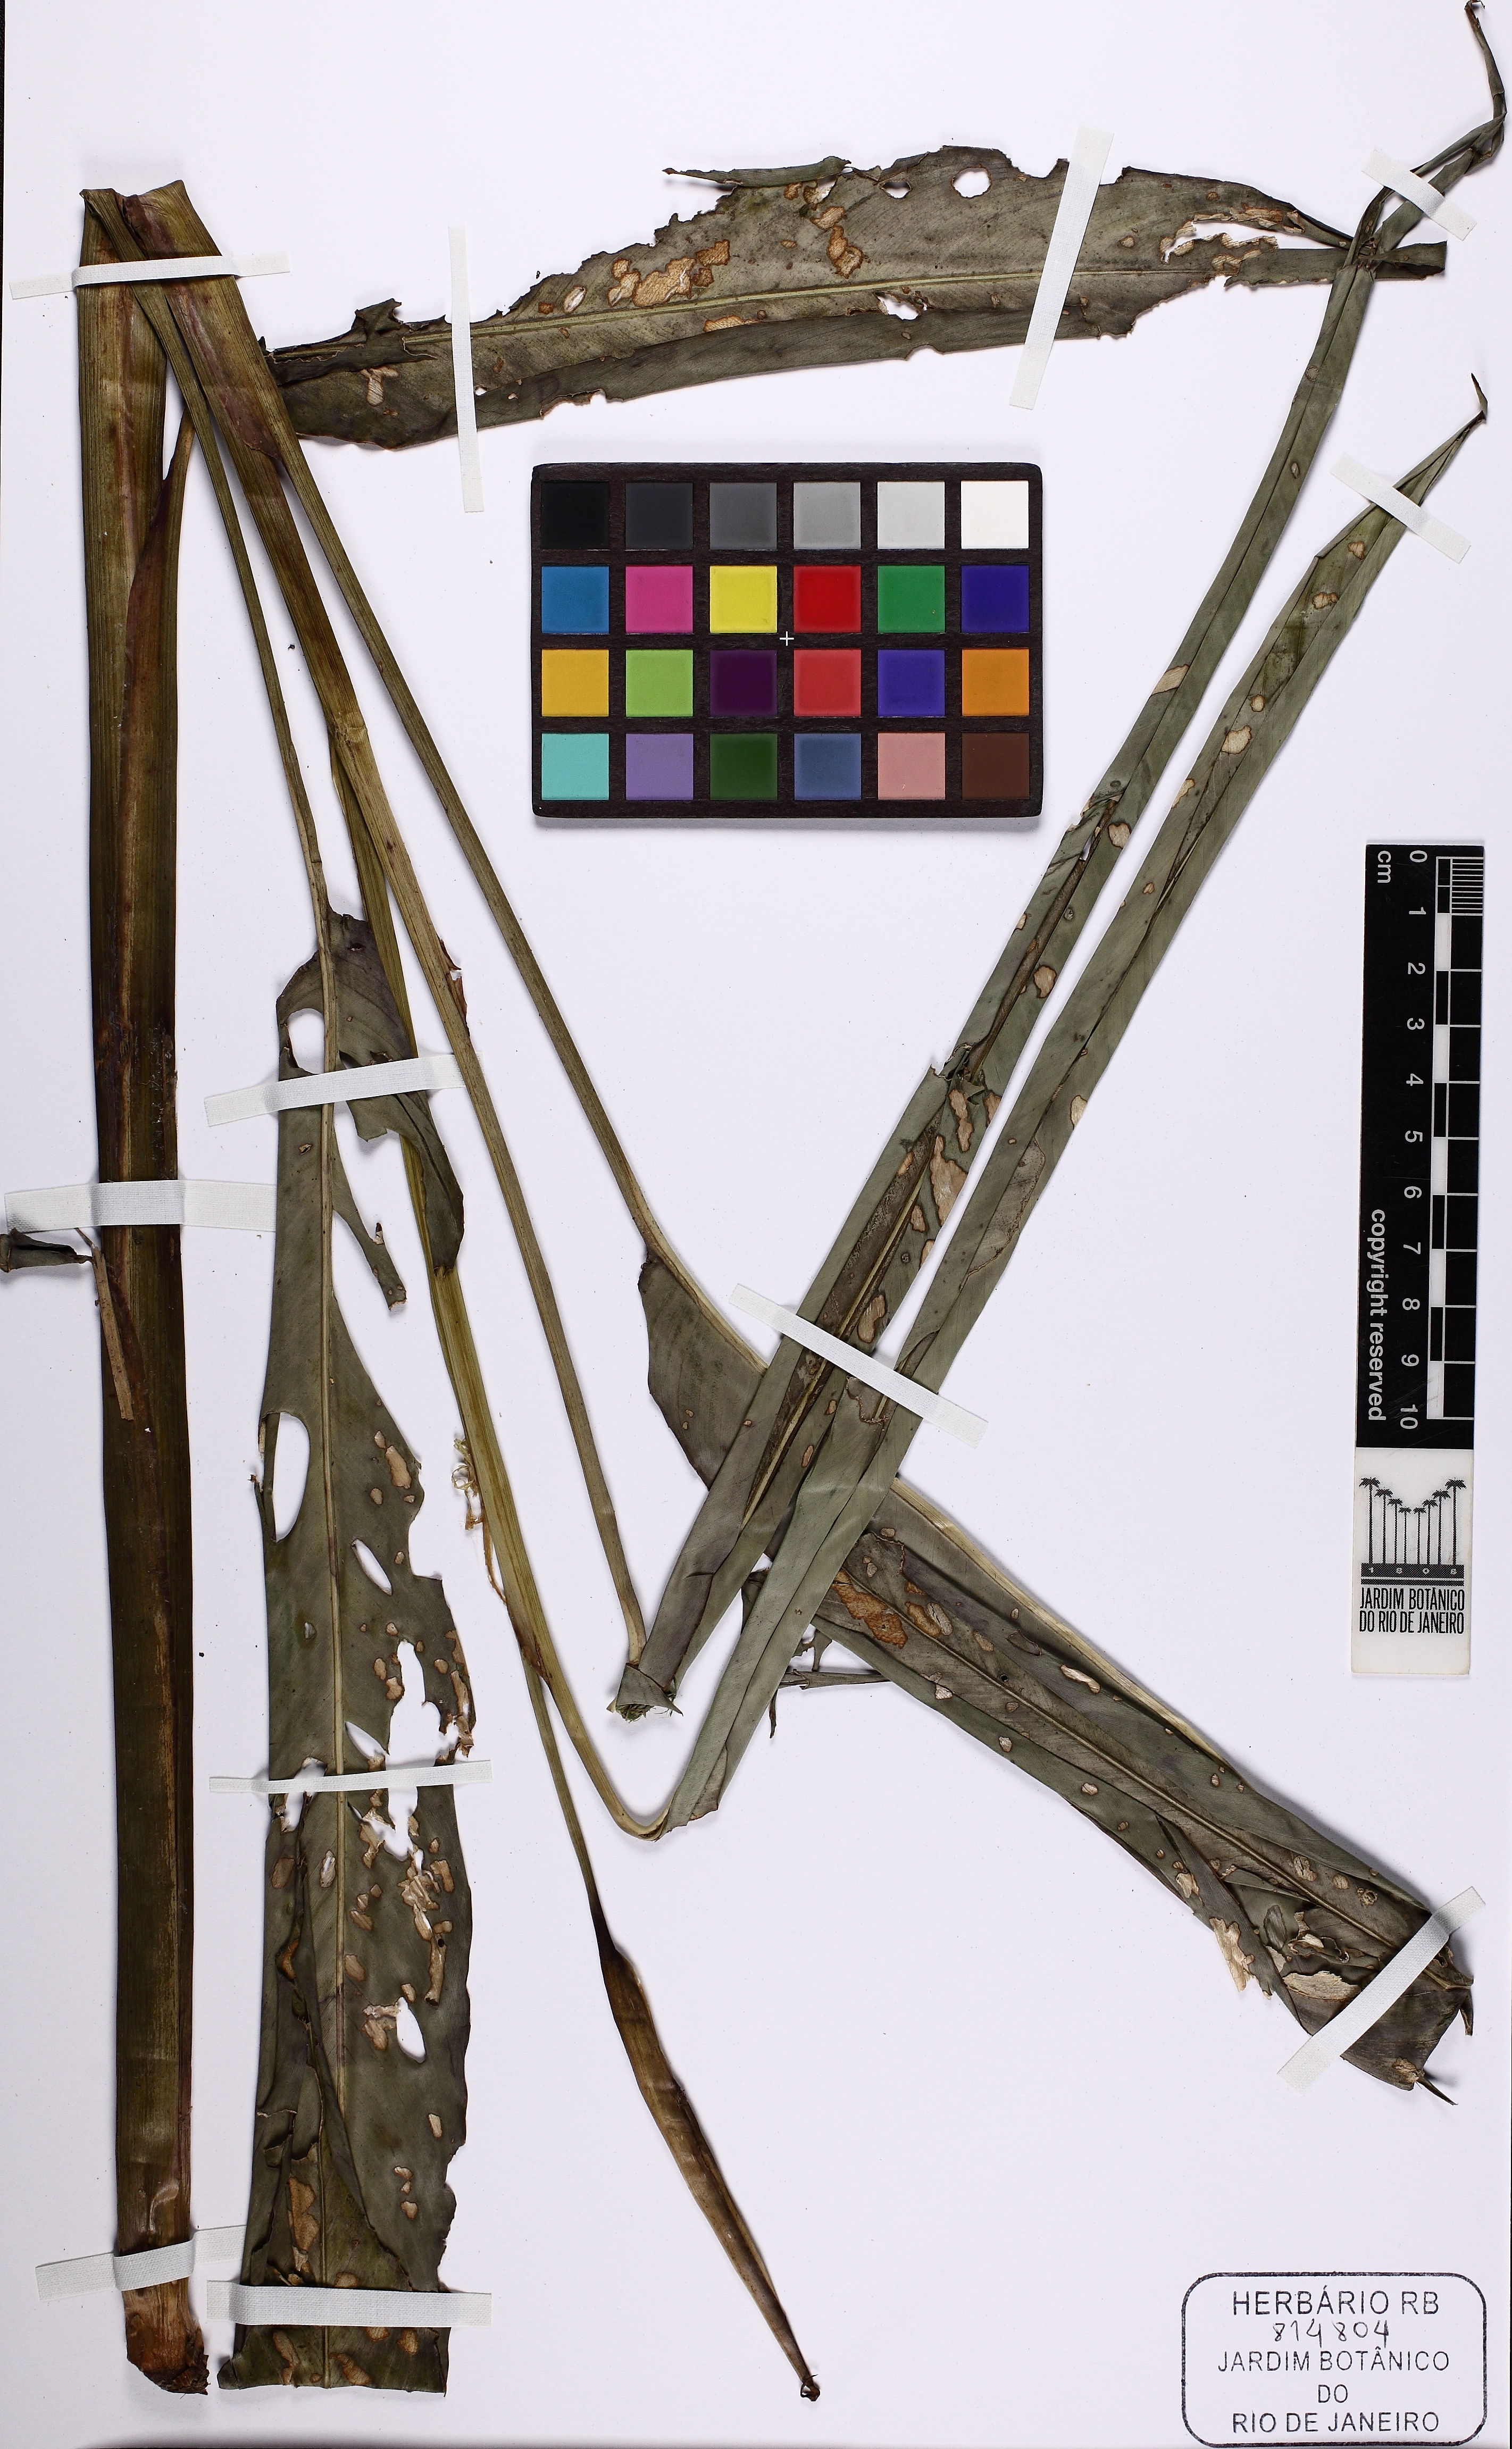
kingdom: Plantae
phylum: Tracheophyta
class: Liliopsida
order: Zingiberales
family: Heliconiaceae
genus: Heliconia
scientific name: Heliconia
